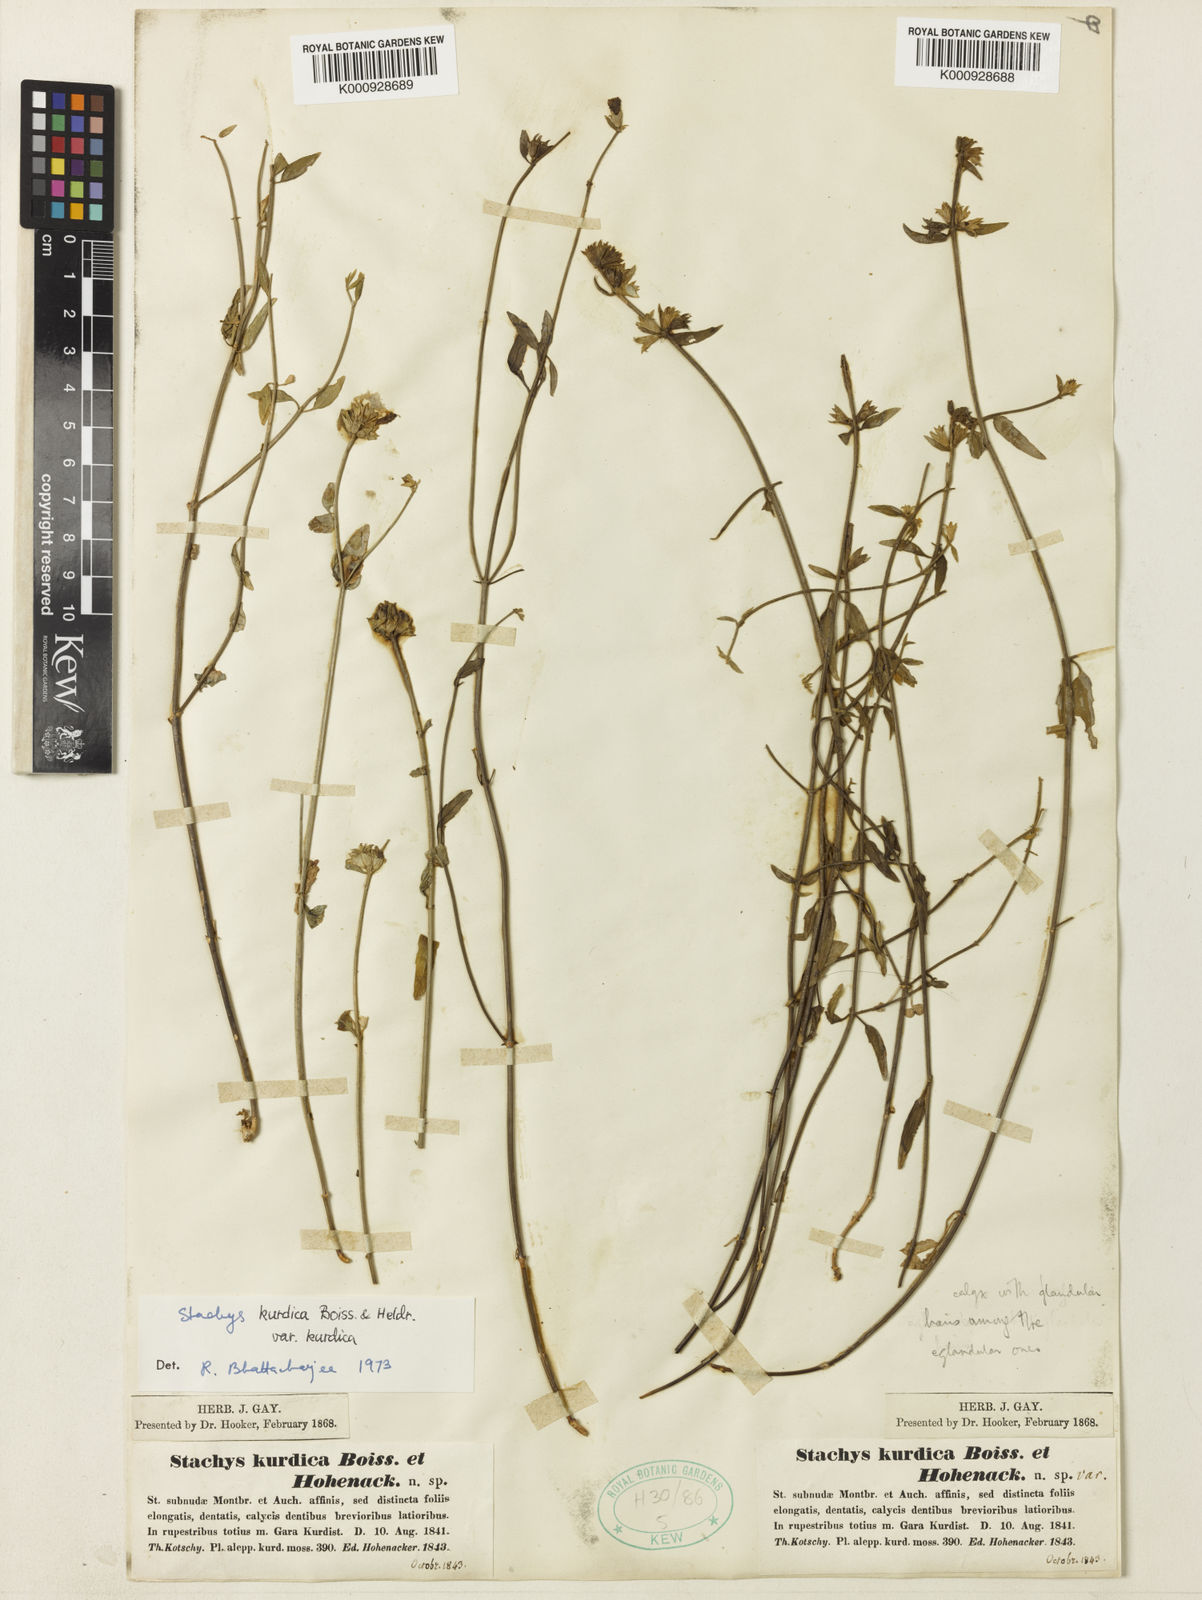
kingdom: Plantae
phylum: Tracheophyta
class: Magnoliopsida
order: Lamiales
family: Lamiaceae
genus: Stachys
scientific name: Stachys kurdica
